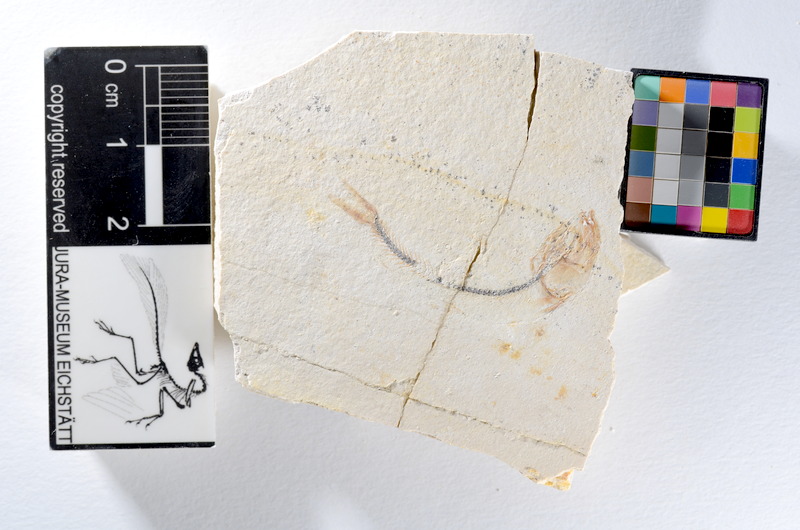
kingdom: Animalia
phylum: Chordata
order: Salmoniformes
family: Orthogonikleithridae
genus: Orthogonikleithrus
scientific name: Orthogonikleithrus hoelli
